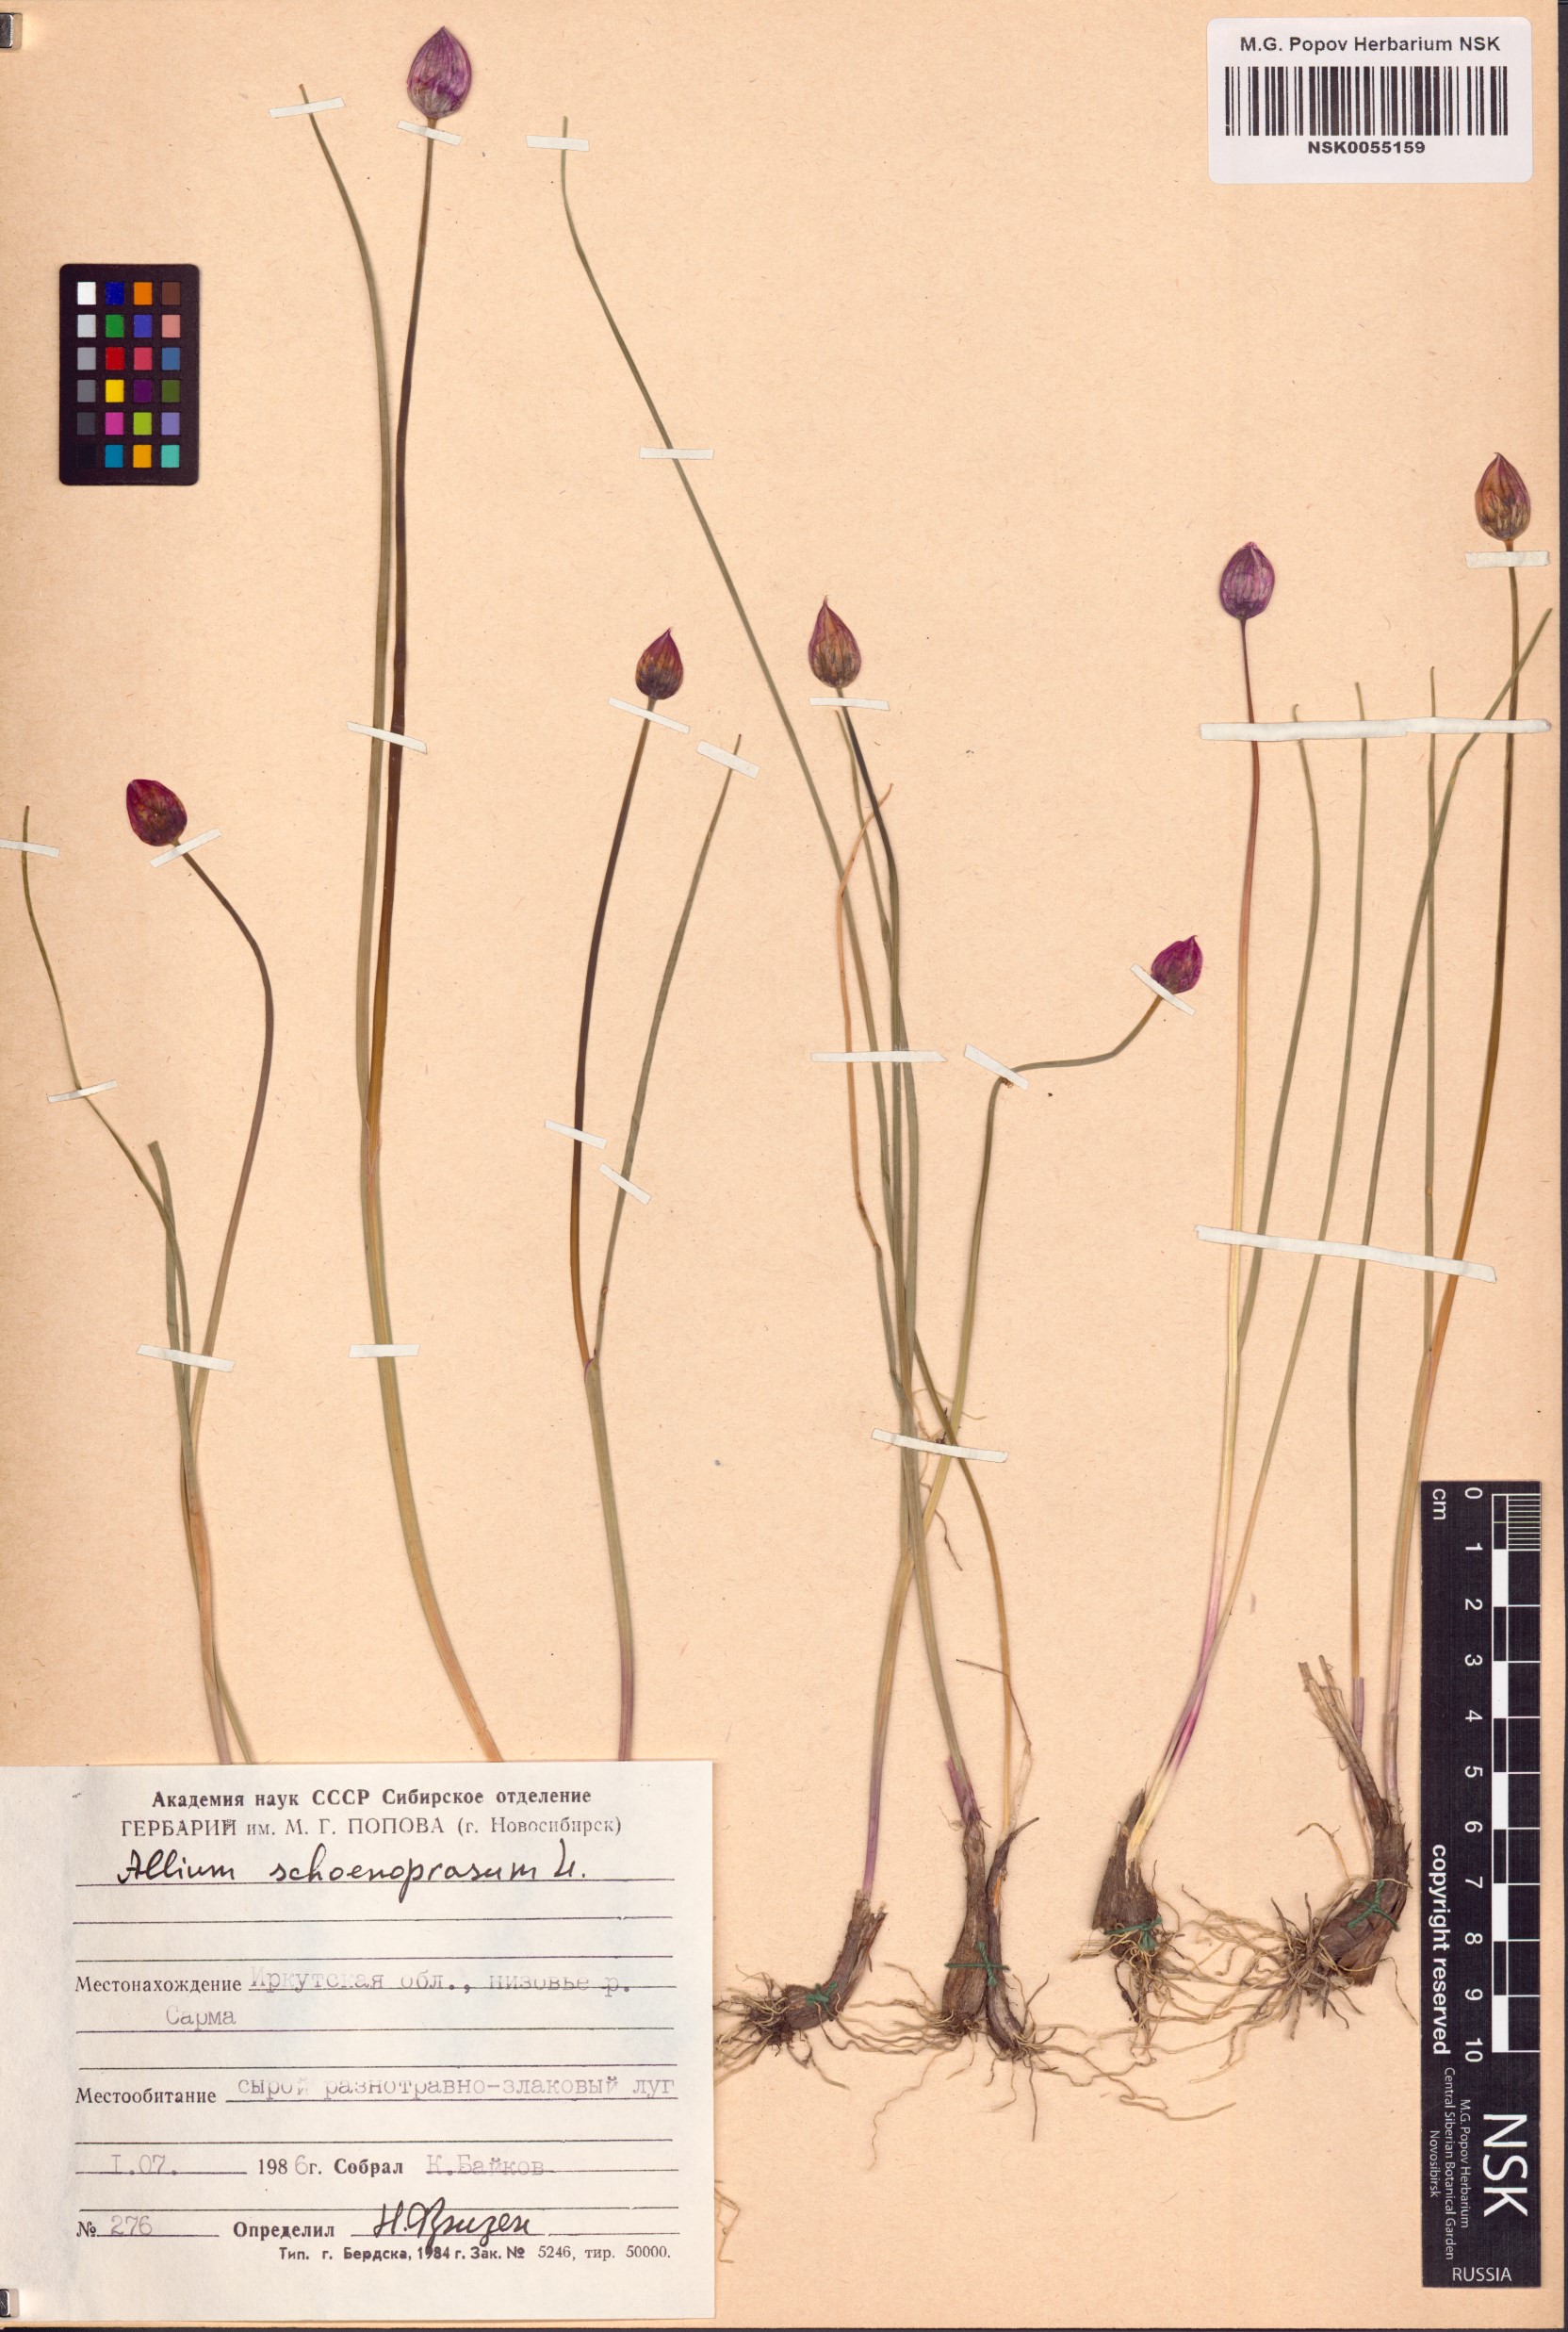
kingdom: Plantae
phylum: Tracheophyta
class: Liliopsida
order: Asparagales
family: Amaryllidaceae
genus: Allium
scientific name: Allium schoenoprasum
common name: Chives
